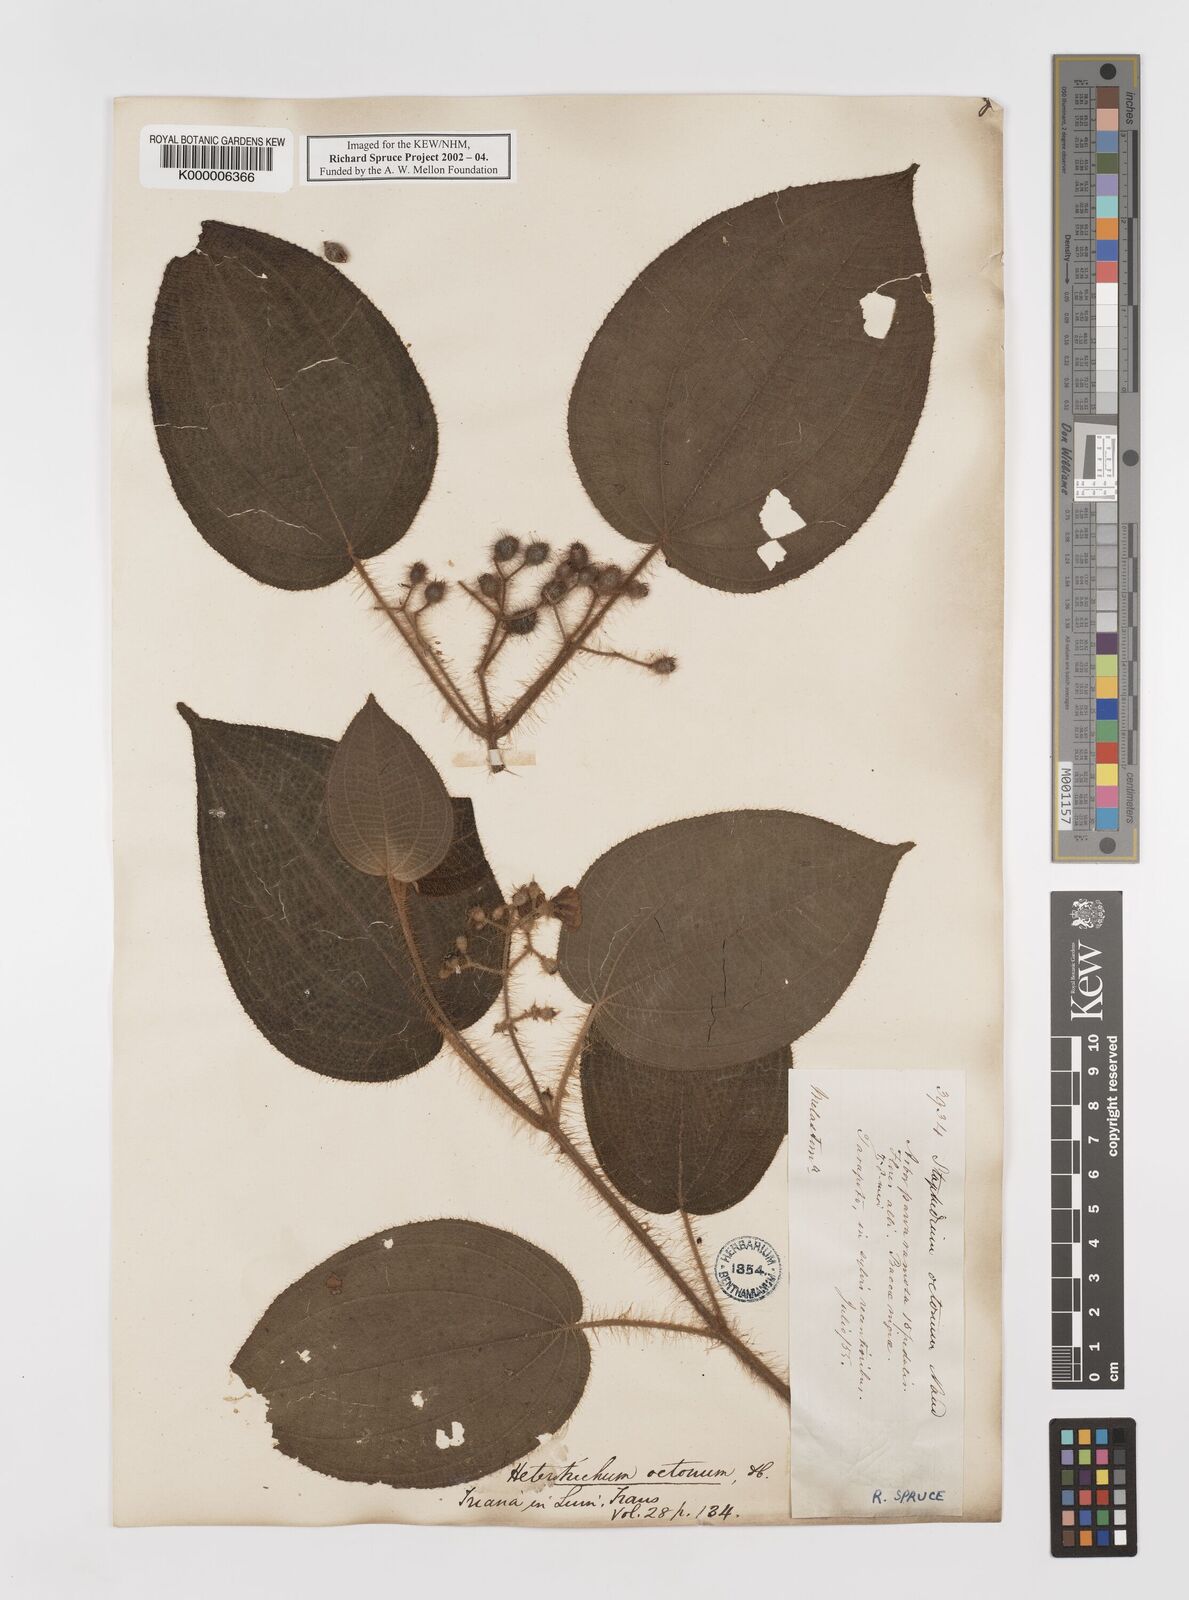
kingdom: Plantae
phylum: Tracheophyta
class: Magnoliopsida
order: Myrtales
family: Melastomataceae
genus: Miconia
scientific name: Miconia octona
